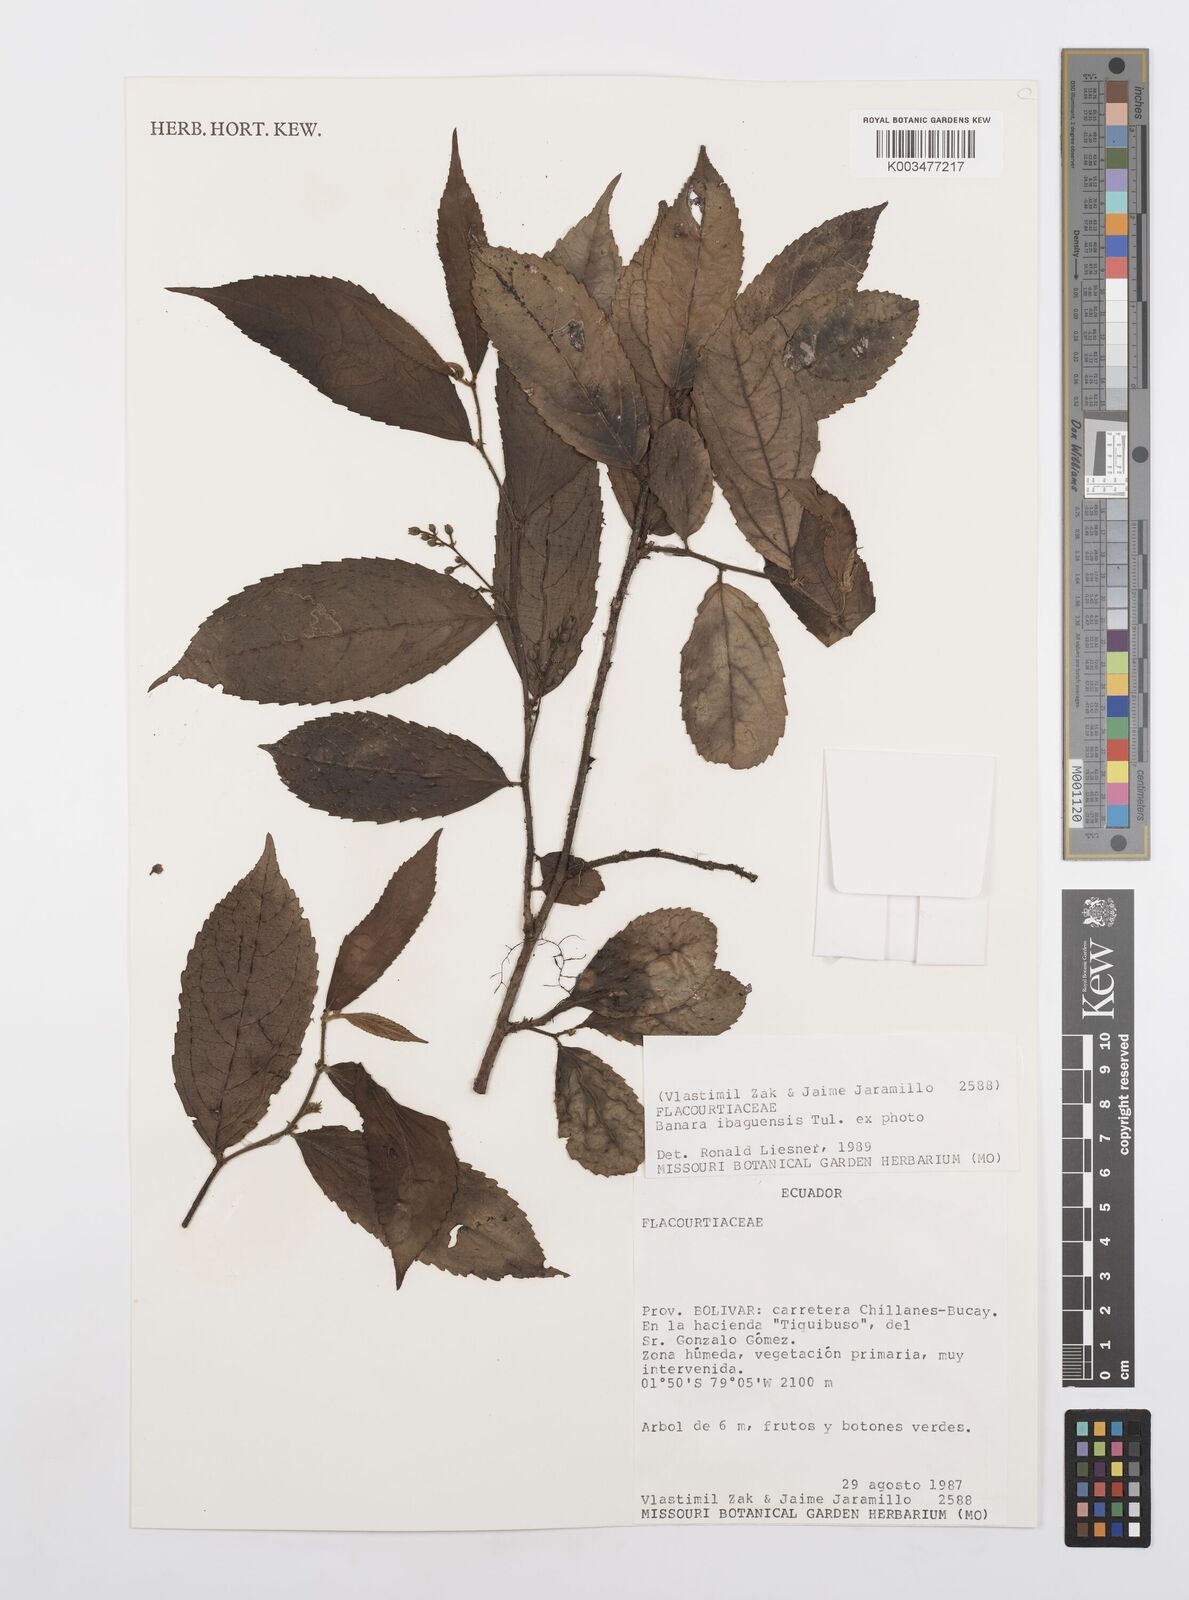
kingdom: Plantae
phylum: Tracheophyta
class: Magnoliopsida
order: Malpighiales
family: Salicaceae
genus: Banara
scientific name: Banara ibaguensis
